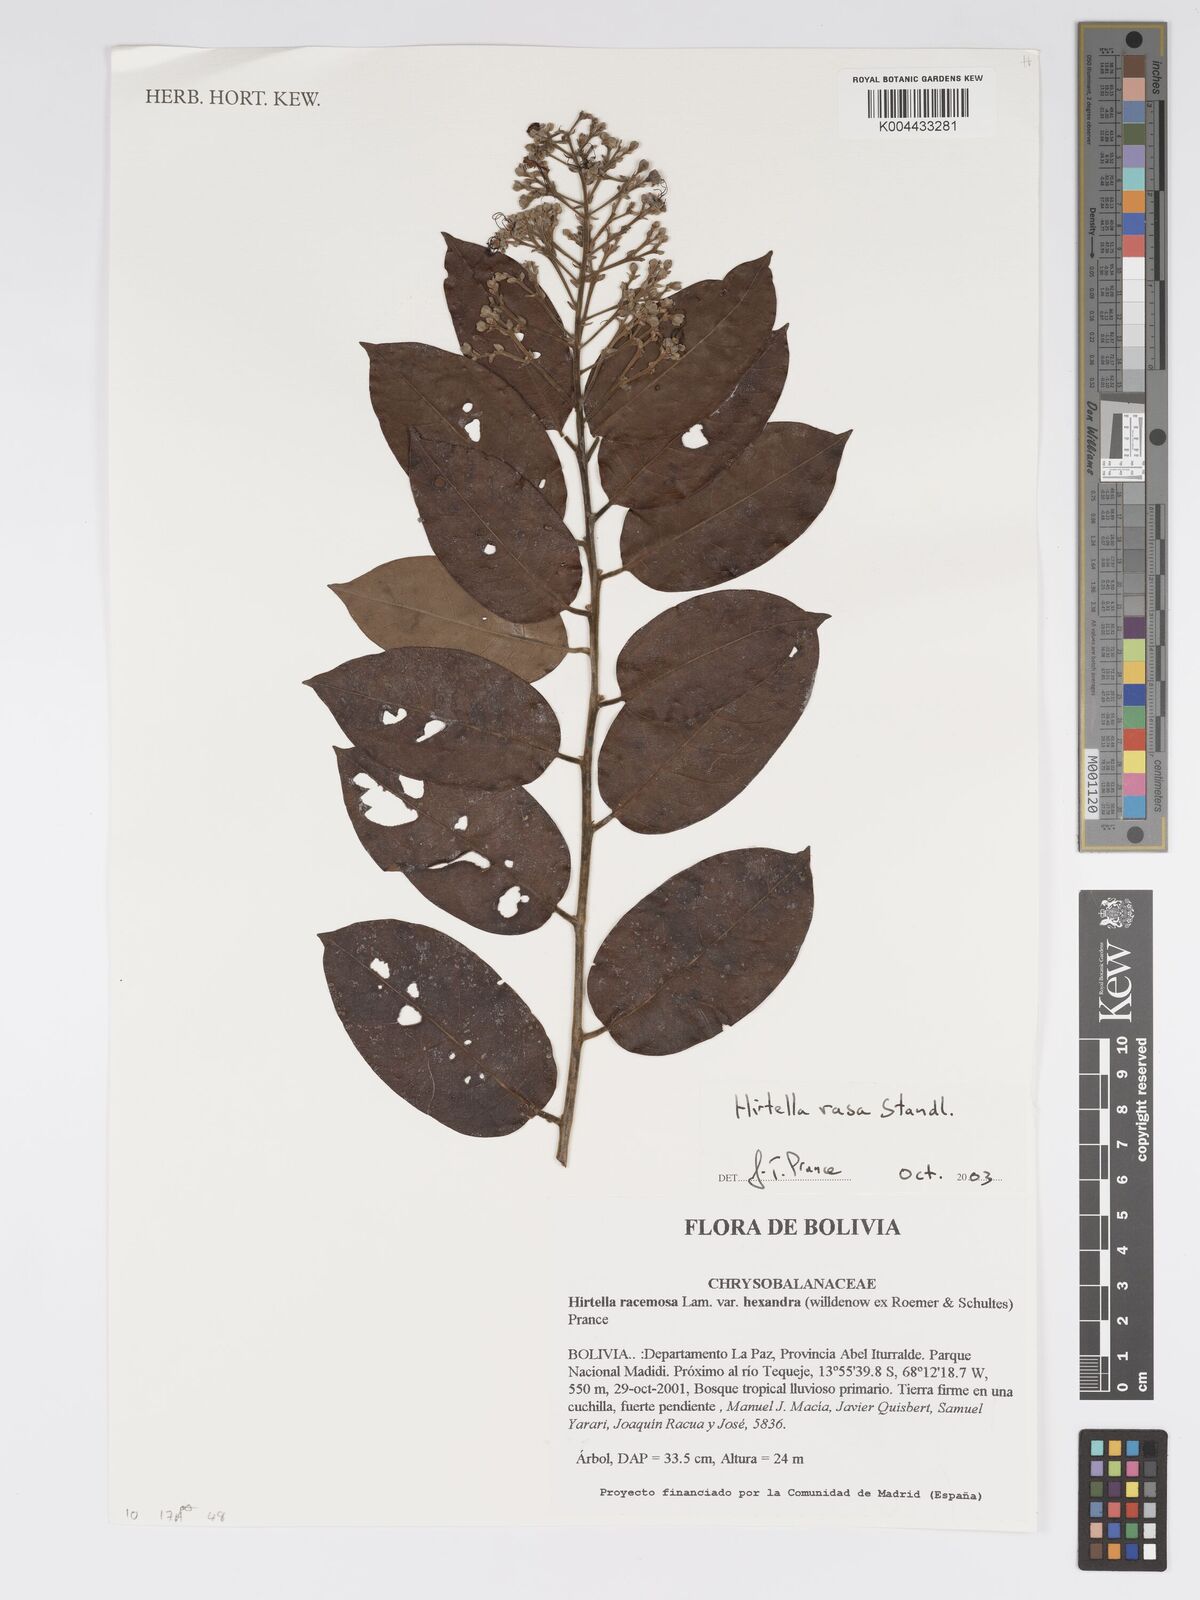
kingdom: Plantae
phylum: Tracheophyta
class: Magnoliopsida
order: Malpighiales
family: Chrysobalanaceae
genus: Hirtella
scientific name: Hirtella rasa
